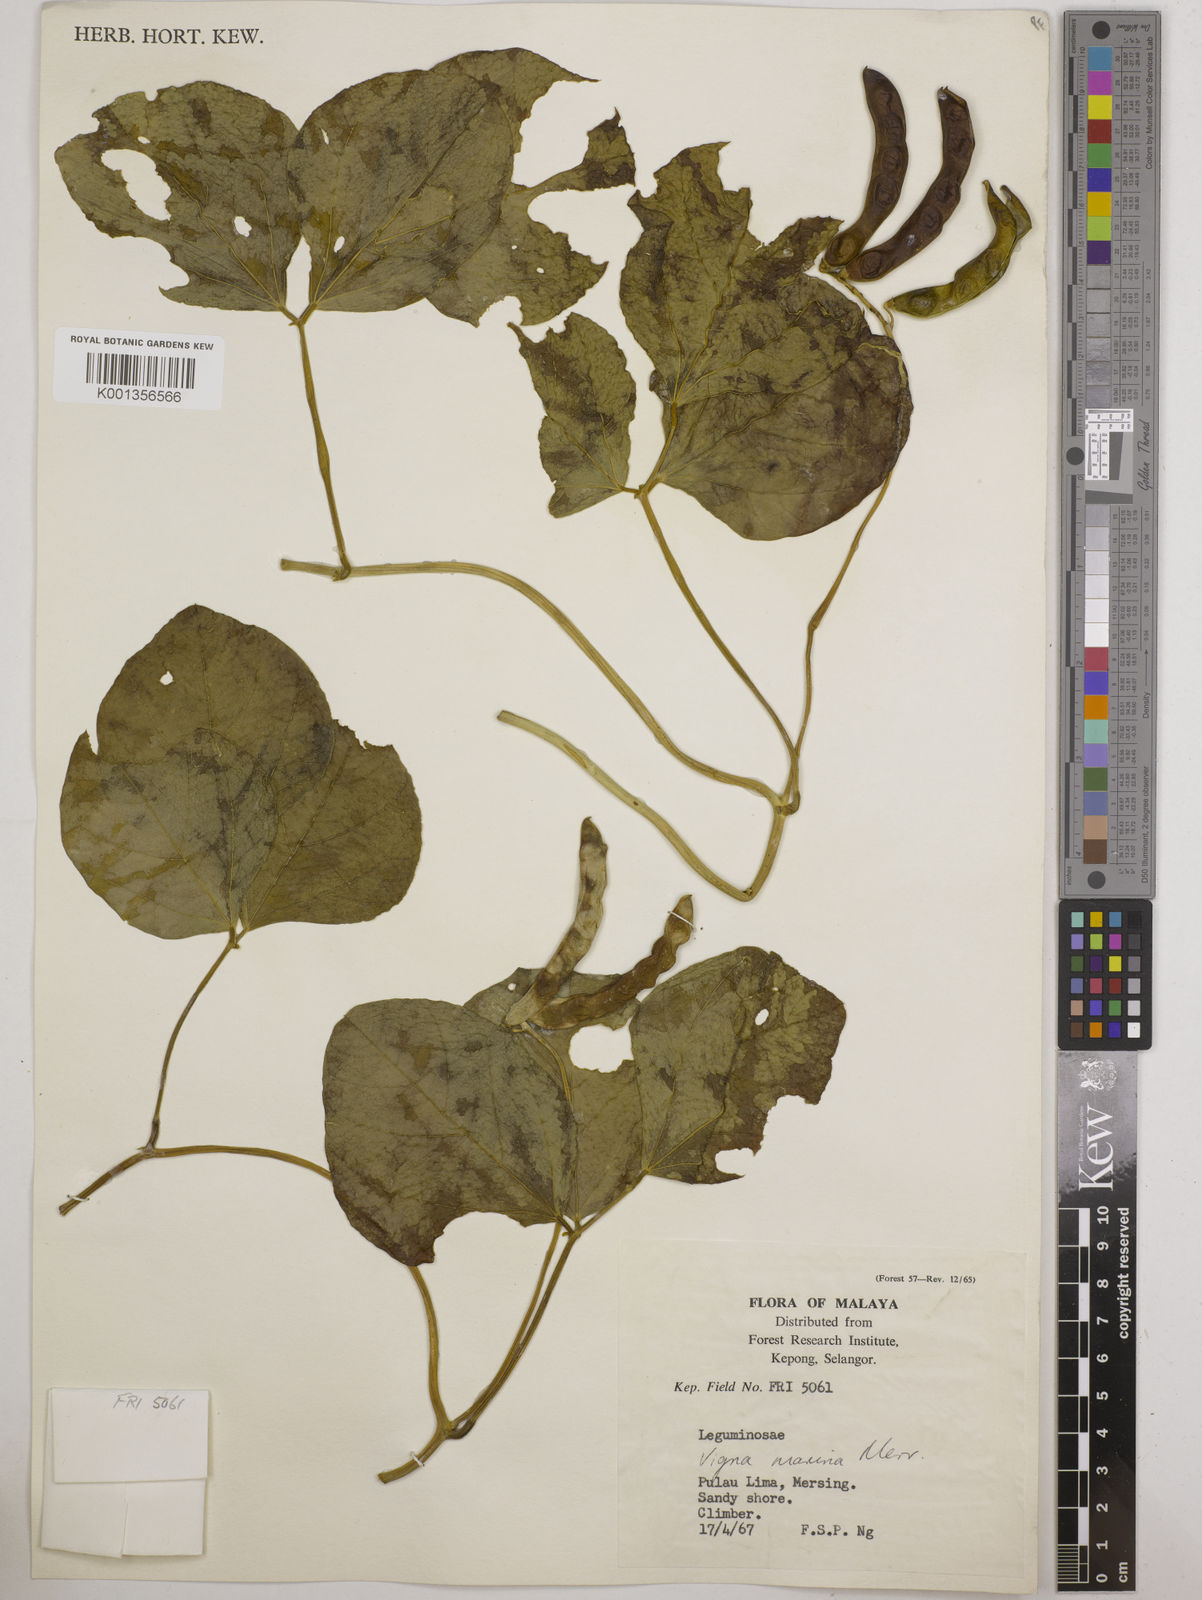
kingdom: Plantae
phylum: Tracheophyta
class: Magnoliopsida
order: Fabales
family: Fabaceae
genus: Vigna
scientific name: Vigna marina
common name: Dune-bean
